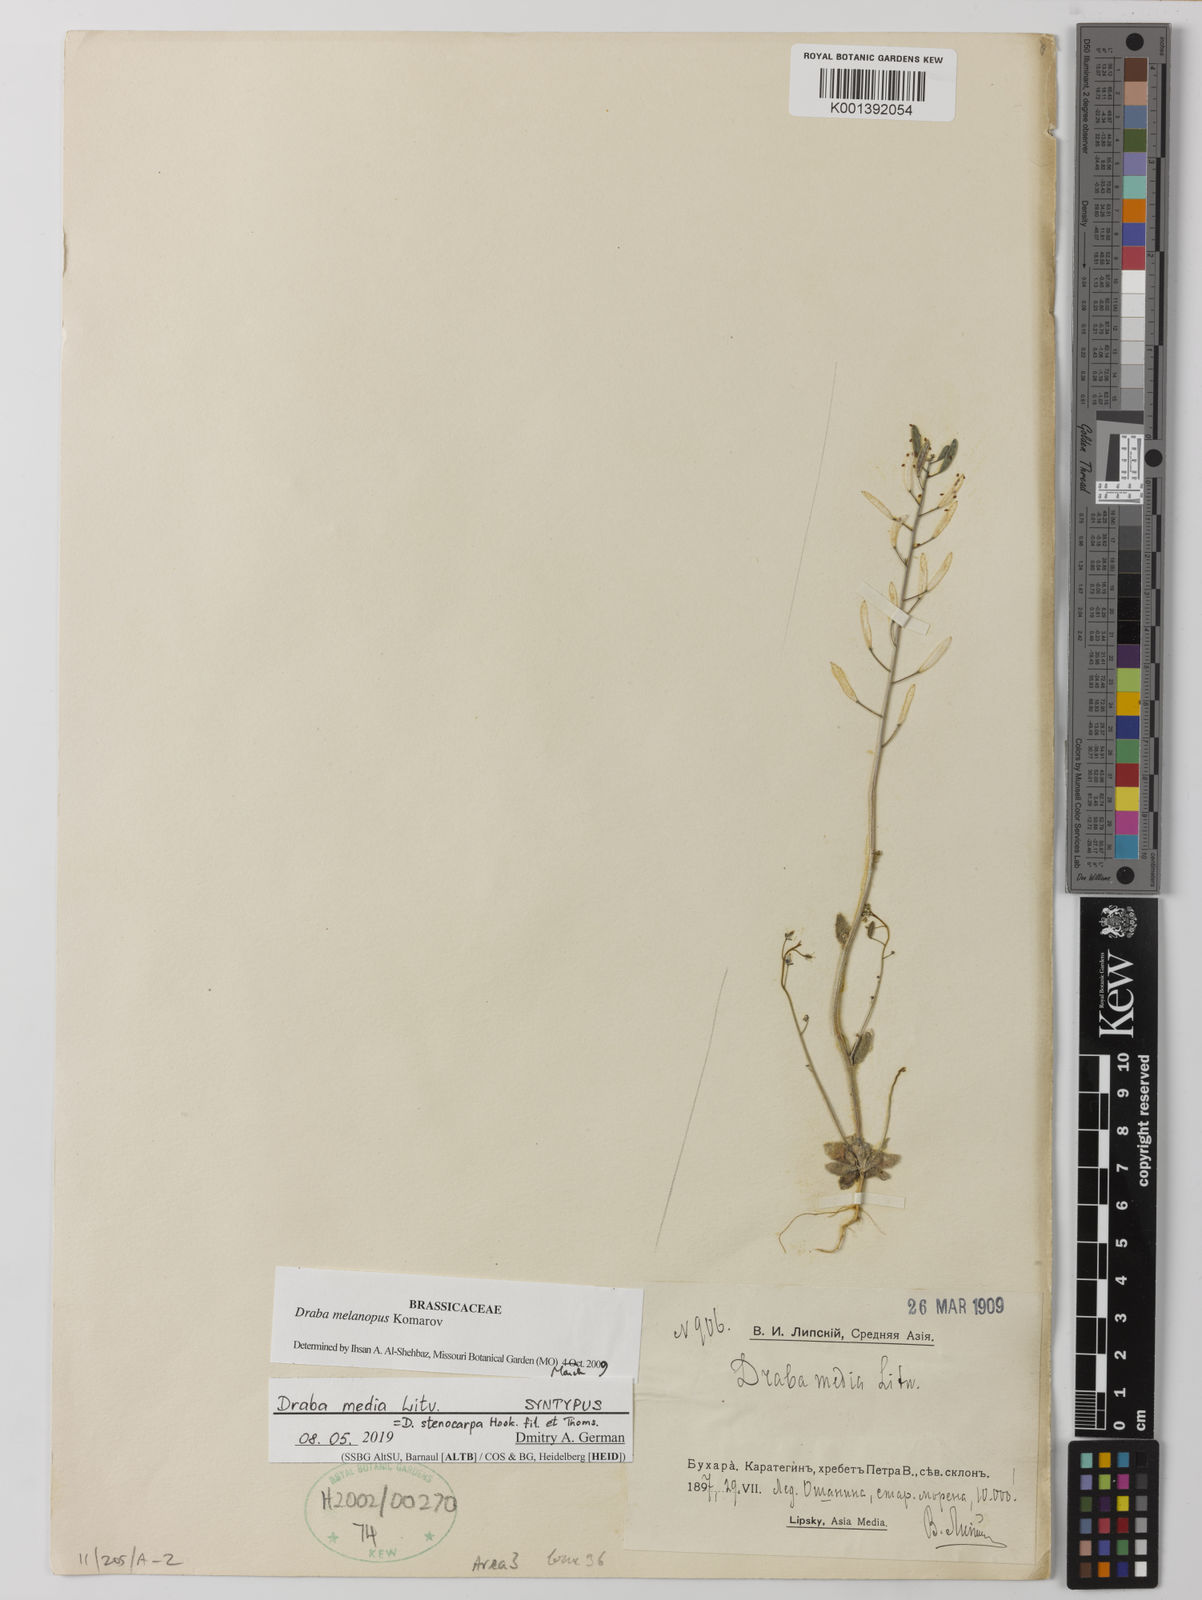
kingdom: Plantae
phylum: Tracheophyta
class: Magnoliopsida
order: Brassicales
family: Brassicaceae
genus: Draba
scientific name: Draba stenocarpa
